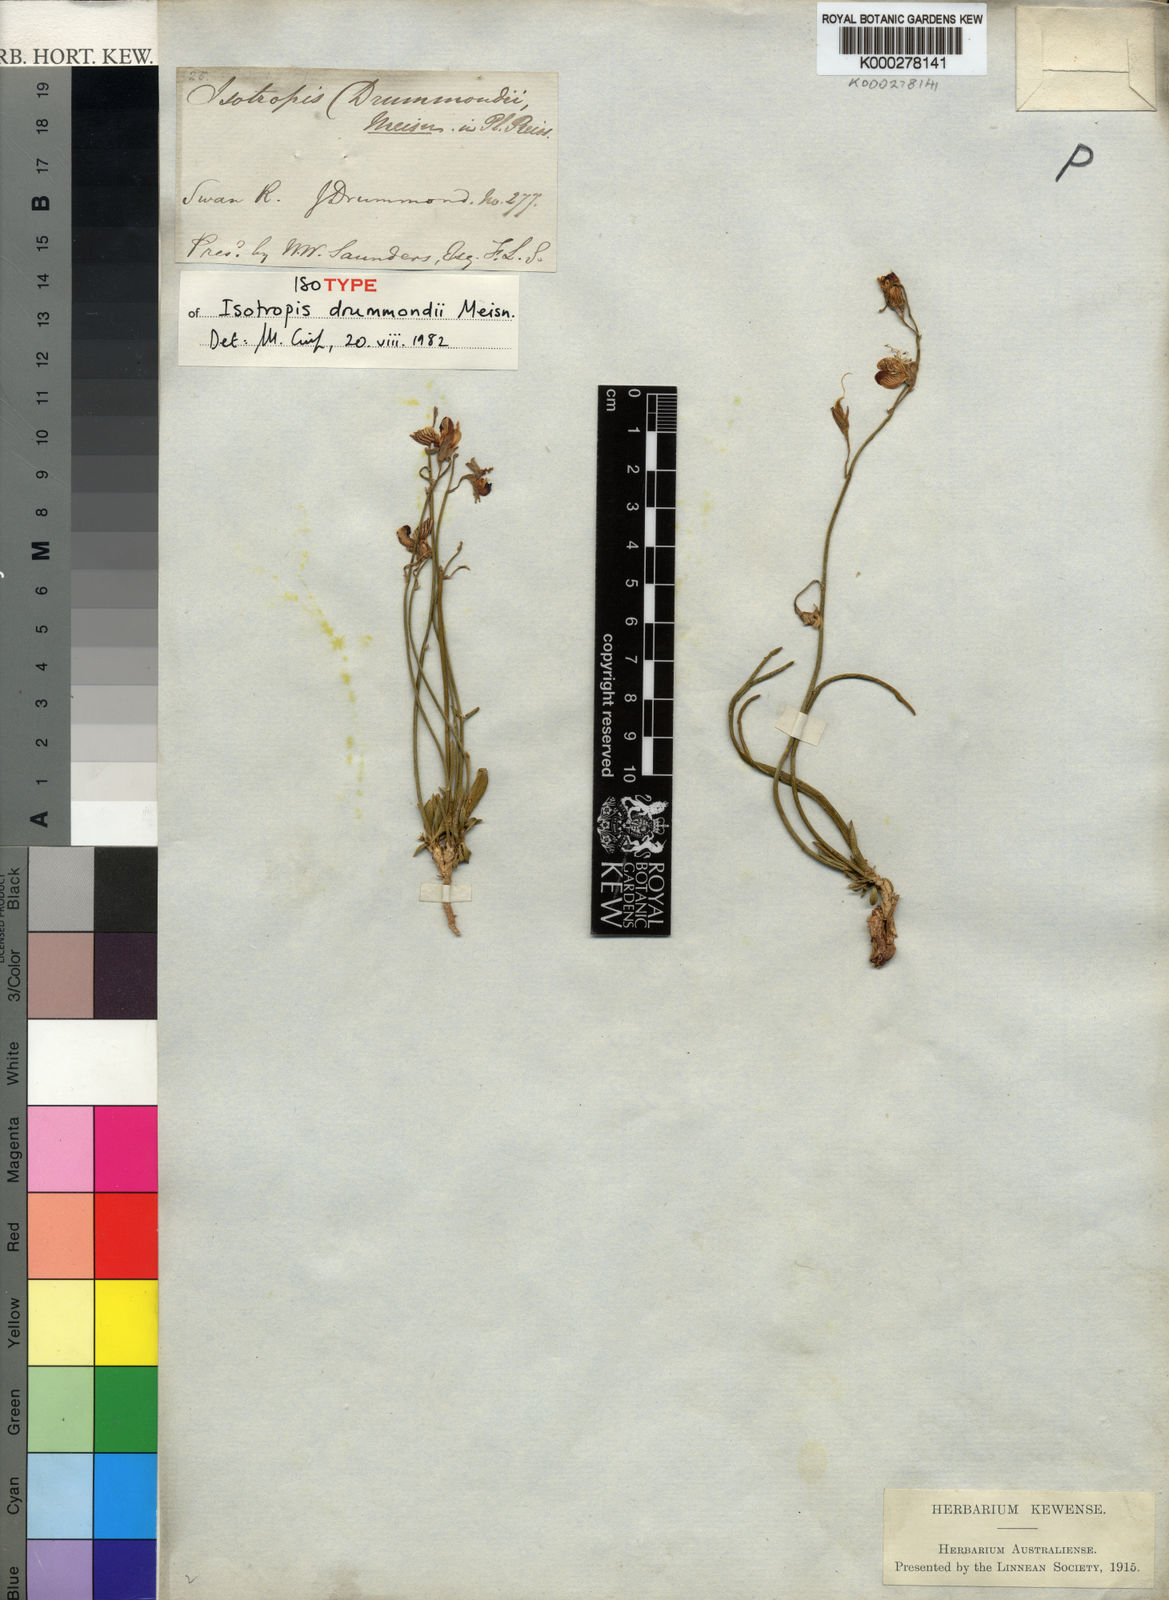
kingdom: Plantae
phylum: Tracheophyta
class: Magnoliopsida
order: Fabales
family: Fabaceae
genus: Isotropis
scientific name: Isotropis drummondii
